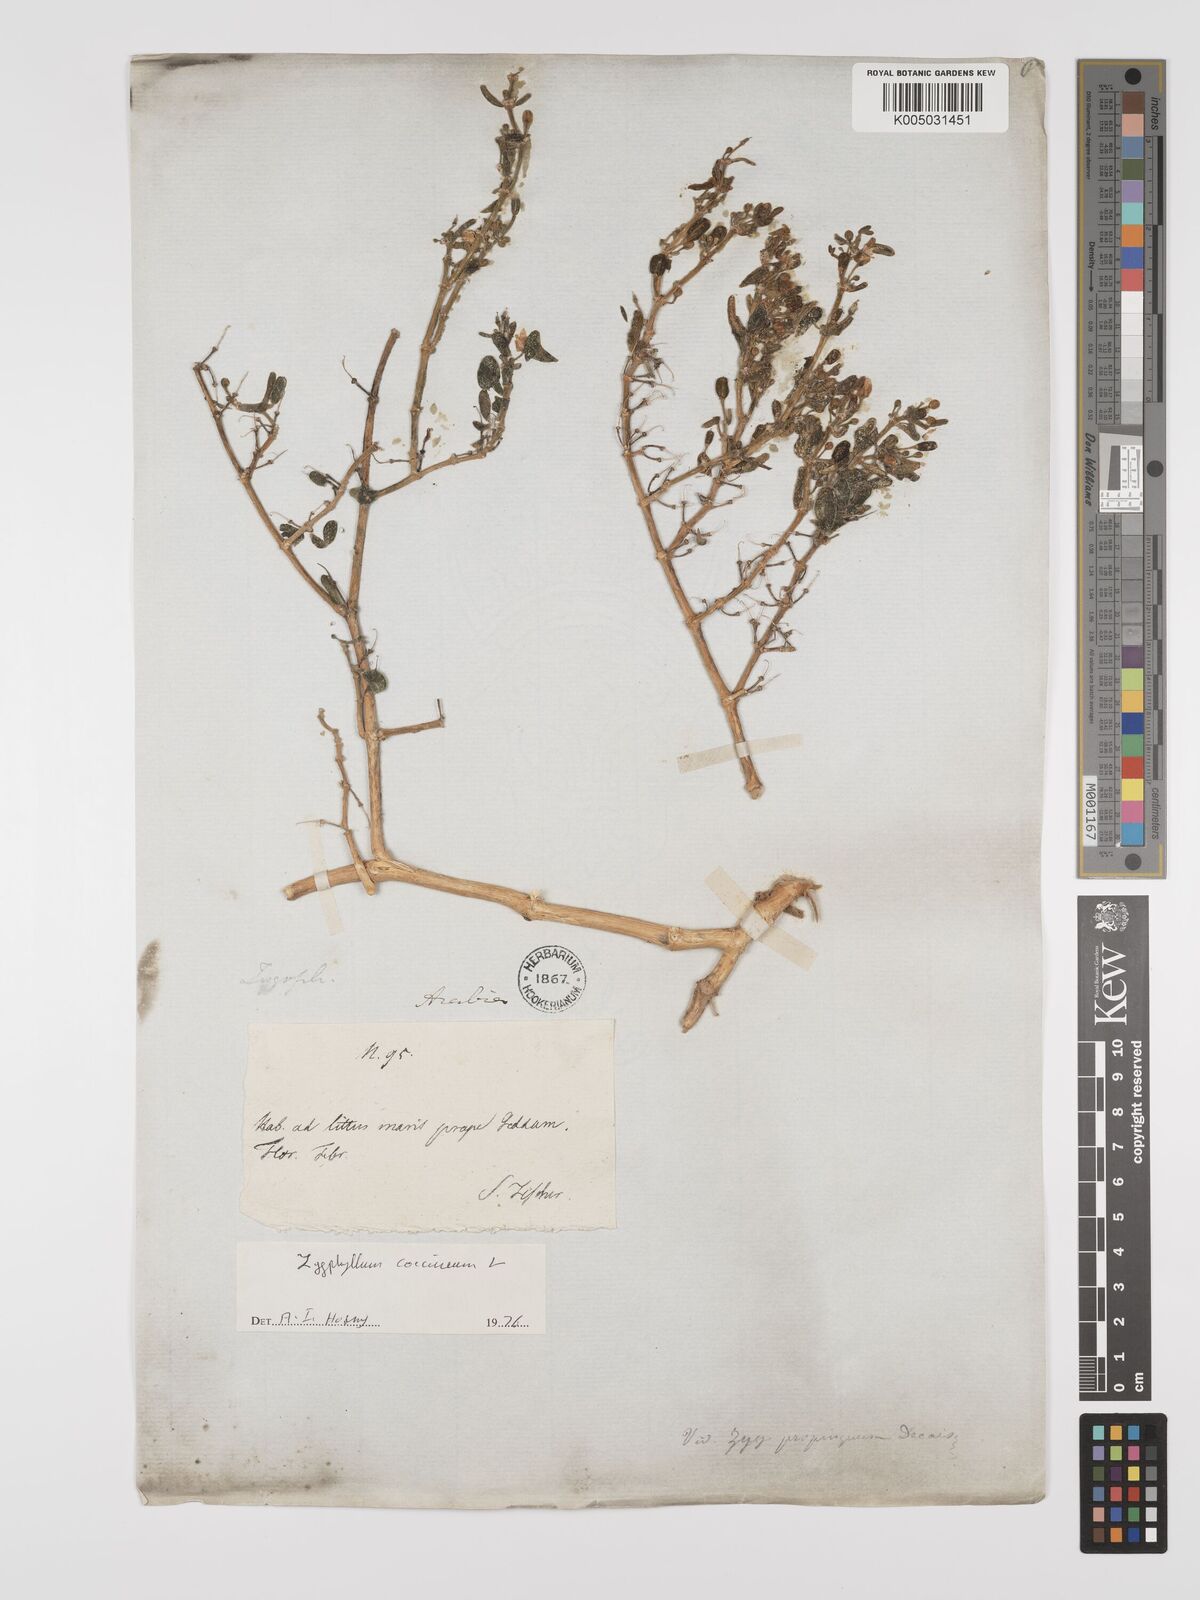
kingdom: Plantae
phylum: Tracheophyta
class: Magnoliopsida
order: Zygophyllales
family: Zygophyllaceae
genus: Zygophyllum
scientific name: Zygophyllum
